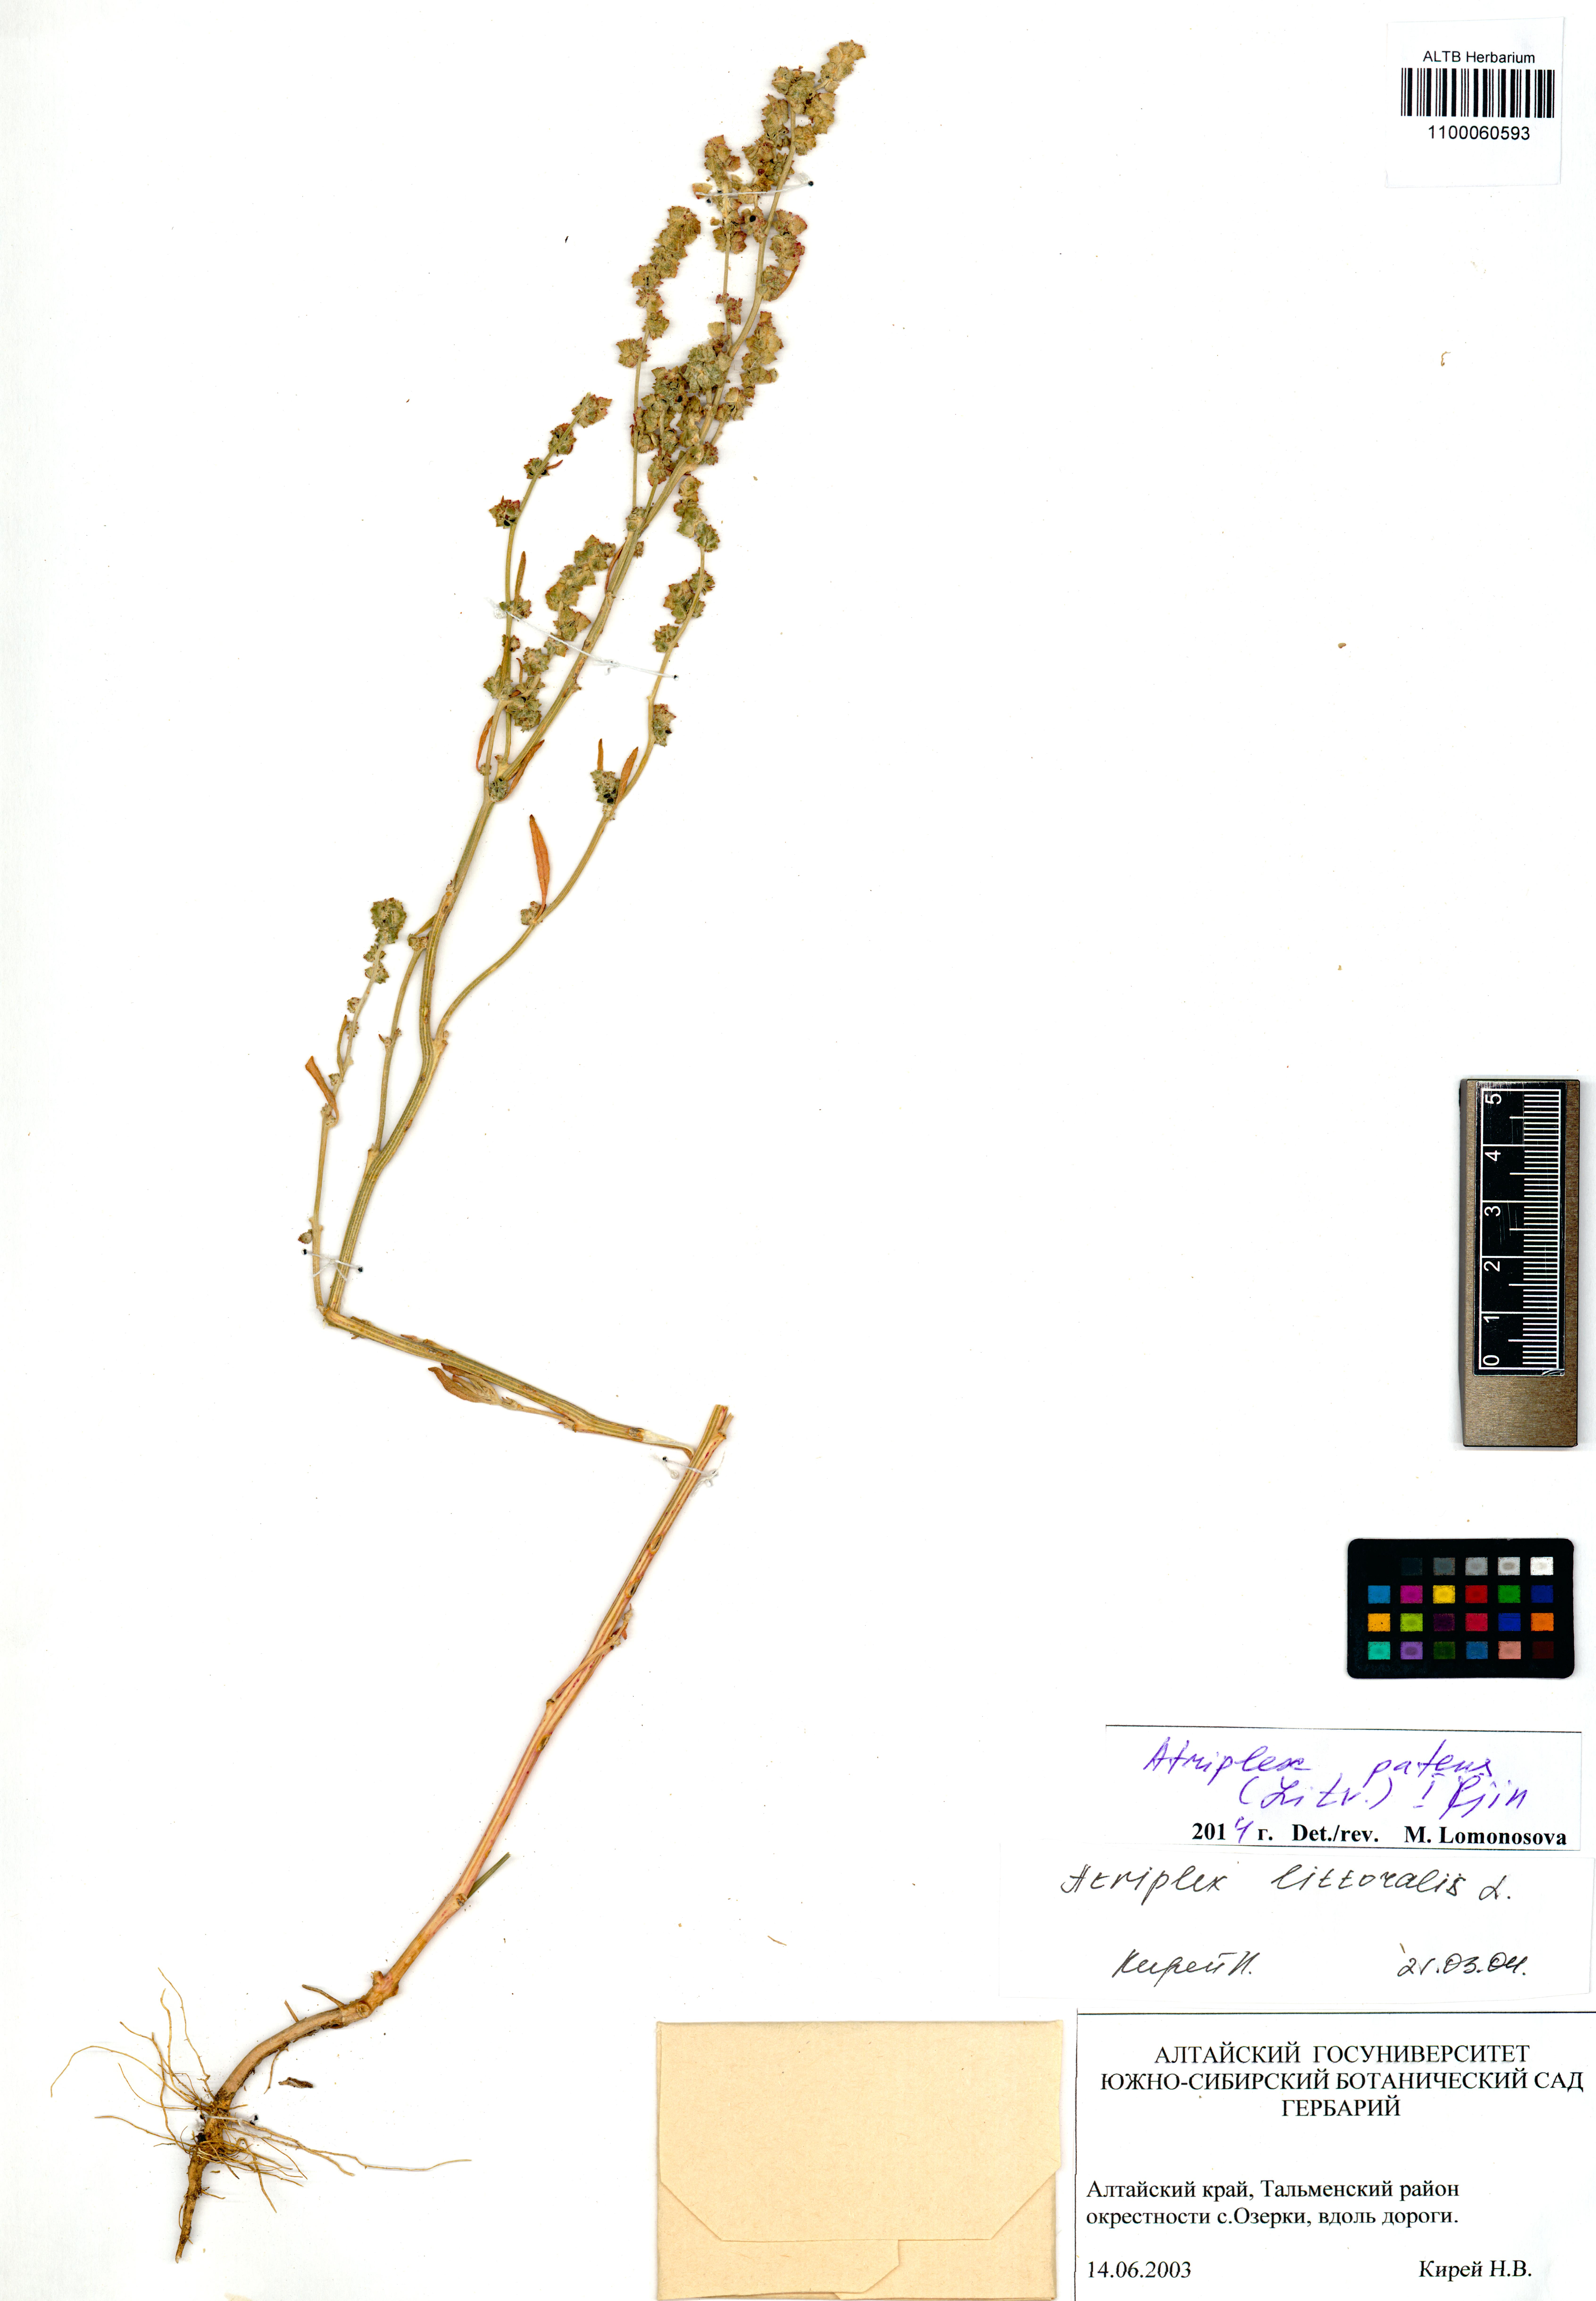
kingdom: Plantae
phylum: Tracheophyta
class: Magnoliopsida
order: Caryophyllales
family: Amaranthaceae
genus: Atriplex
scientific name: Atriplex patens
